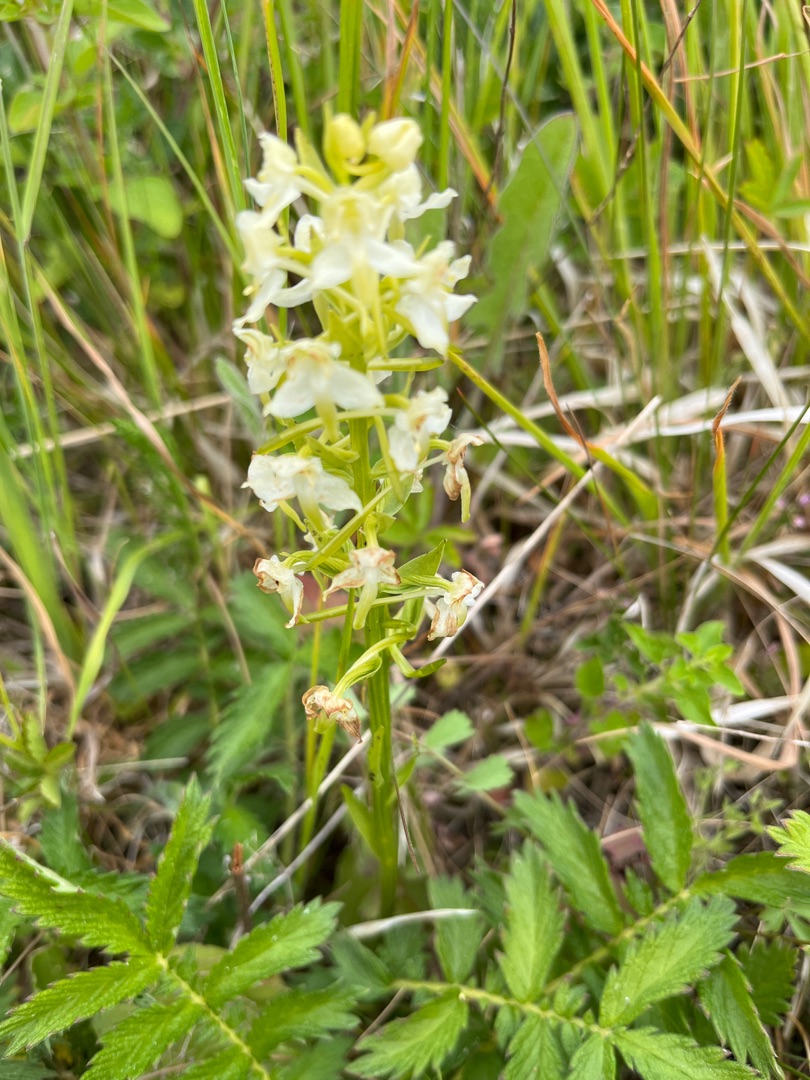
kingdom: Plantae
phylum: Tracheophyta
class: Liliopsida
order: Asparagales
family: Orchidaceae
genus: Platanthera
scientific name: Platanthera chlorantha
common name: Skov-gøgelilje
